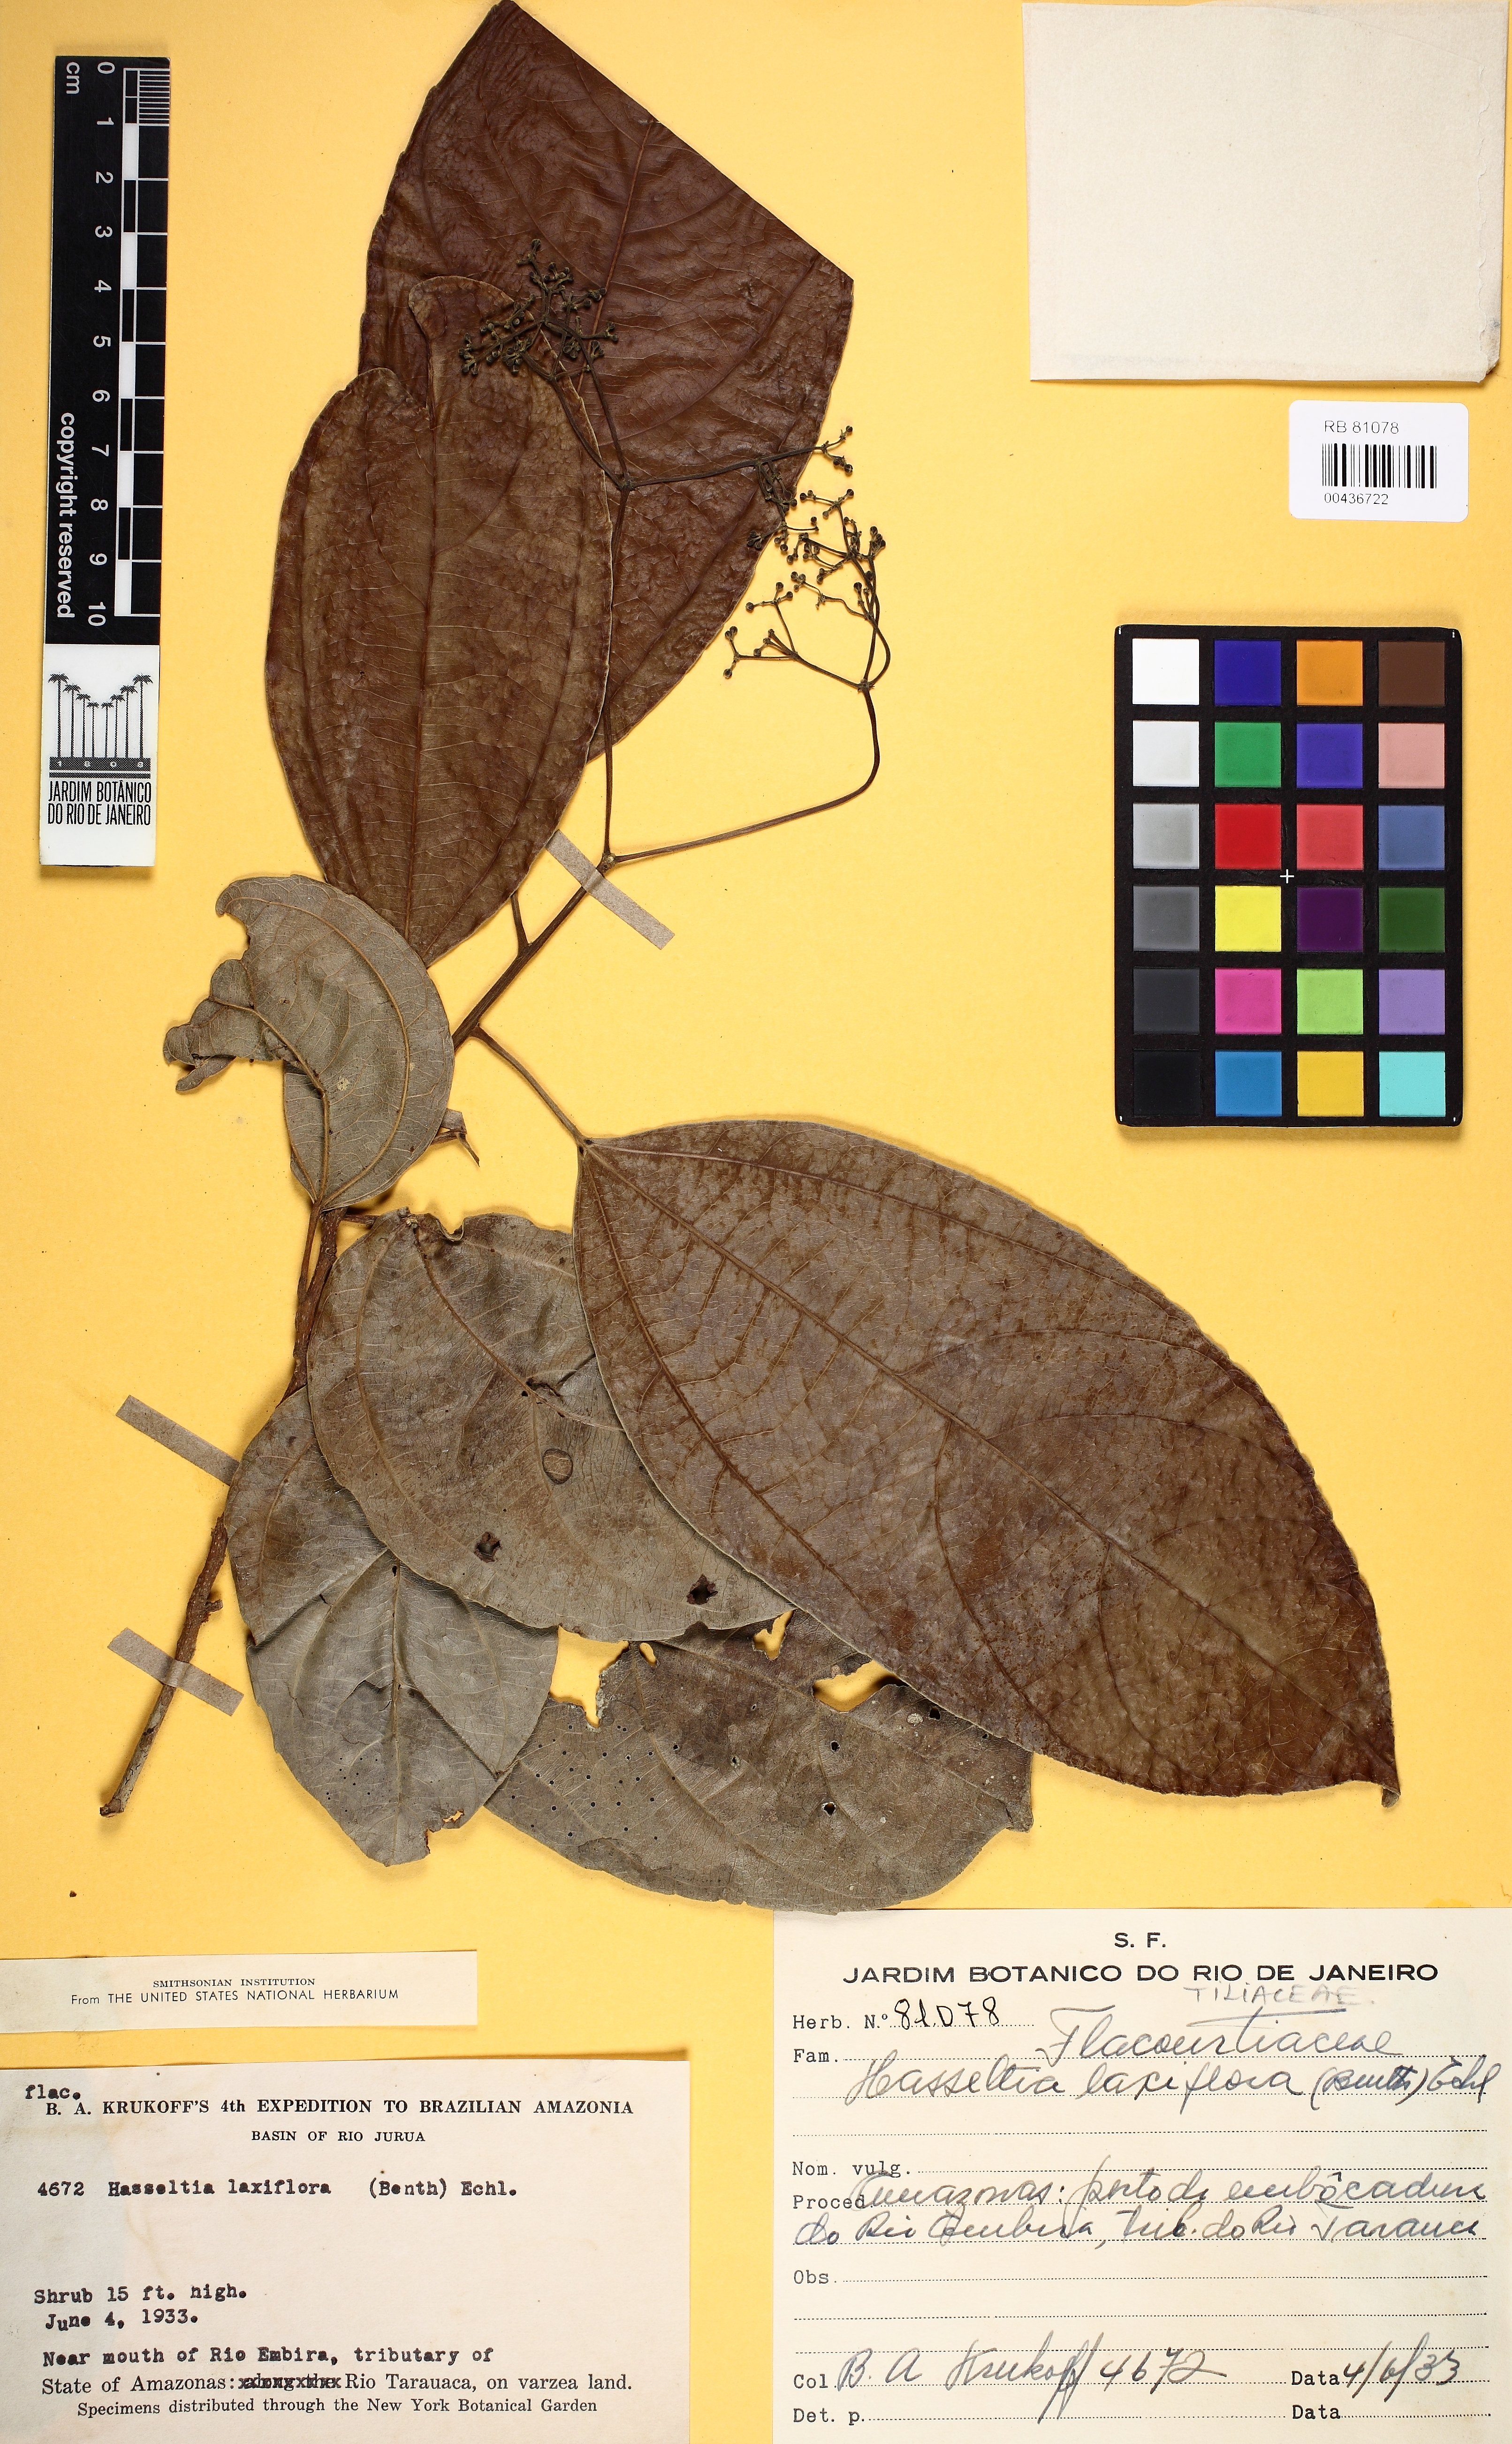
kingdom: Plantae
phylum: Tracheophyta
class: Magnoliopsida
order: Malpighiales
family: Salicaceae
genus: Hasseltia
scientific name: Hasseltia floribunda
